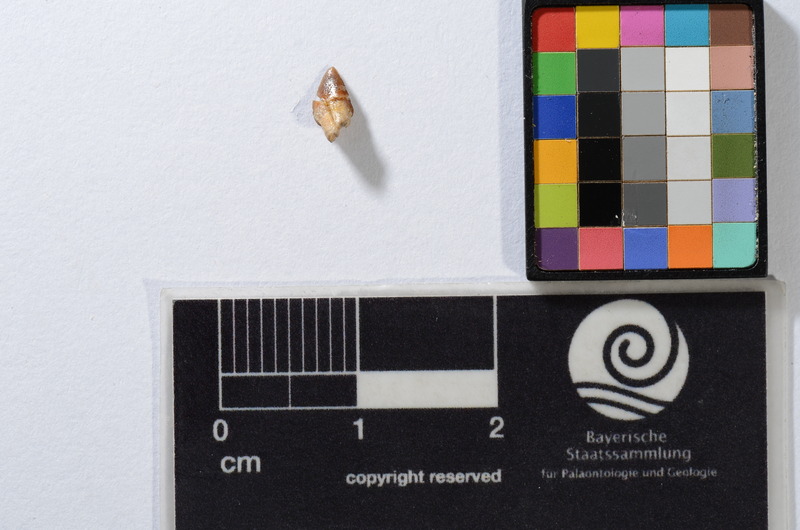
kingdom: Animalia
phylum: Chordata
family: Saurodontidae
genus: Saurocephalus
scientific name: Saurocephalus
